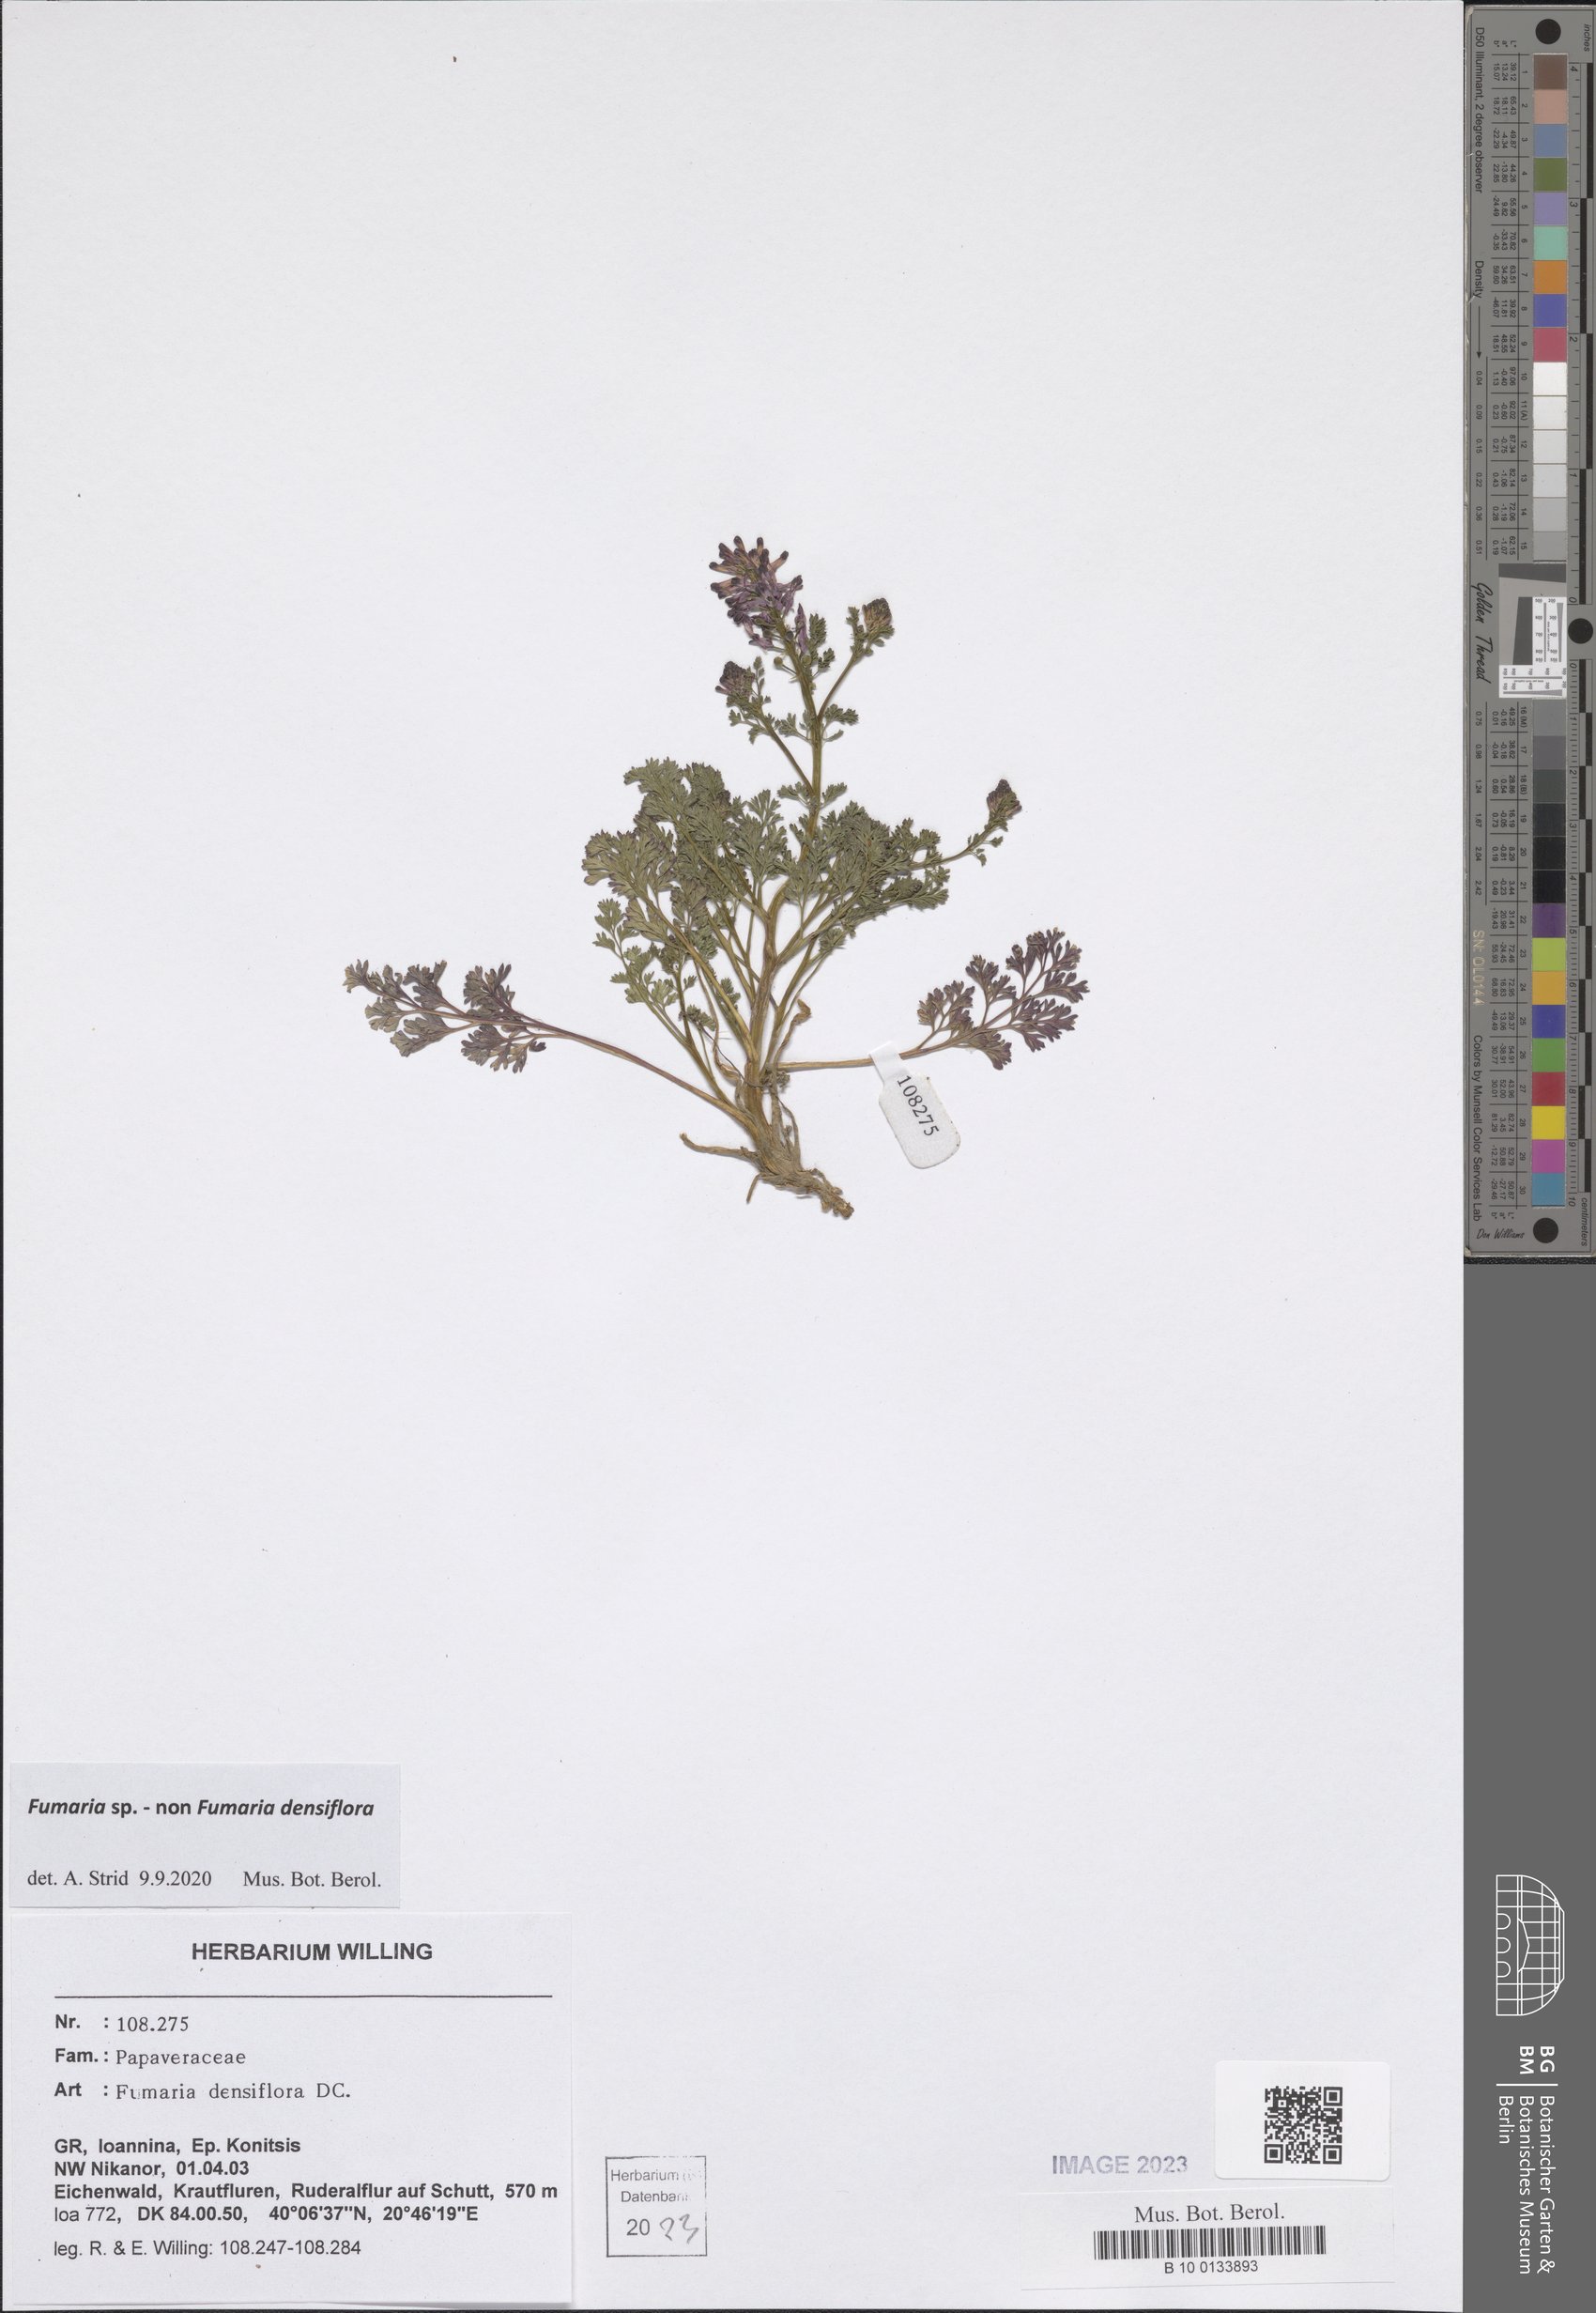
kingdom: Plantae
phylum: Tracheophyta
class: Magnoliopsida
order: Ranunculales
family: Papaveraceae
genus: Fumaria
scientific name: Fumaria
